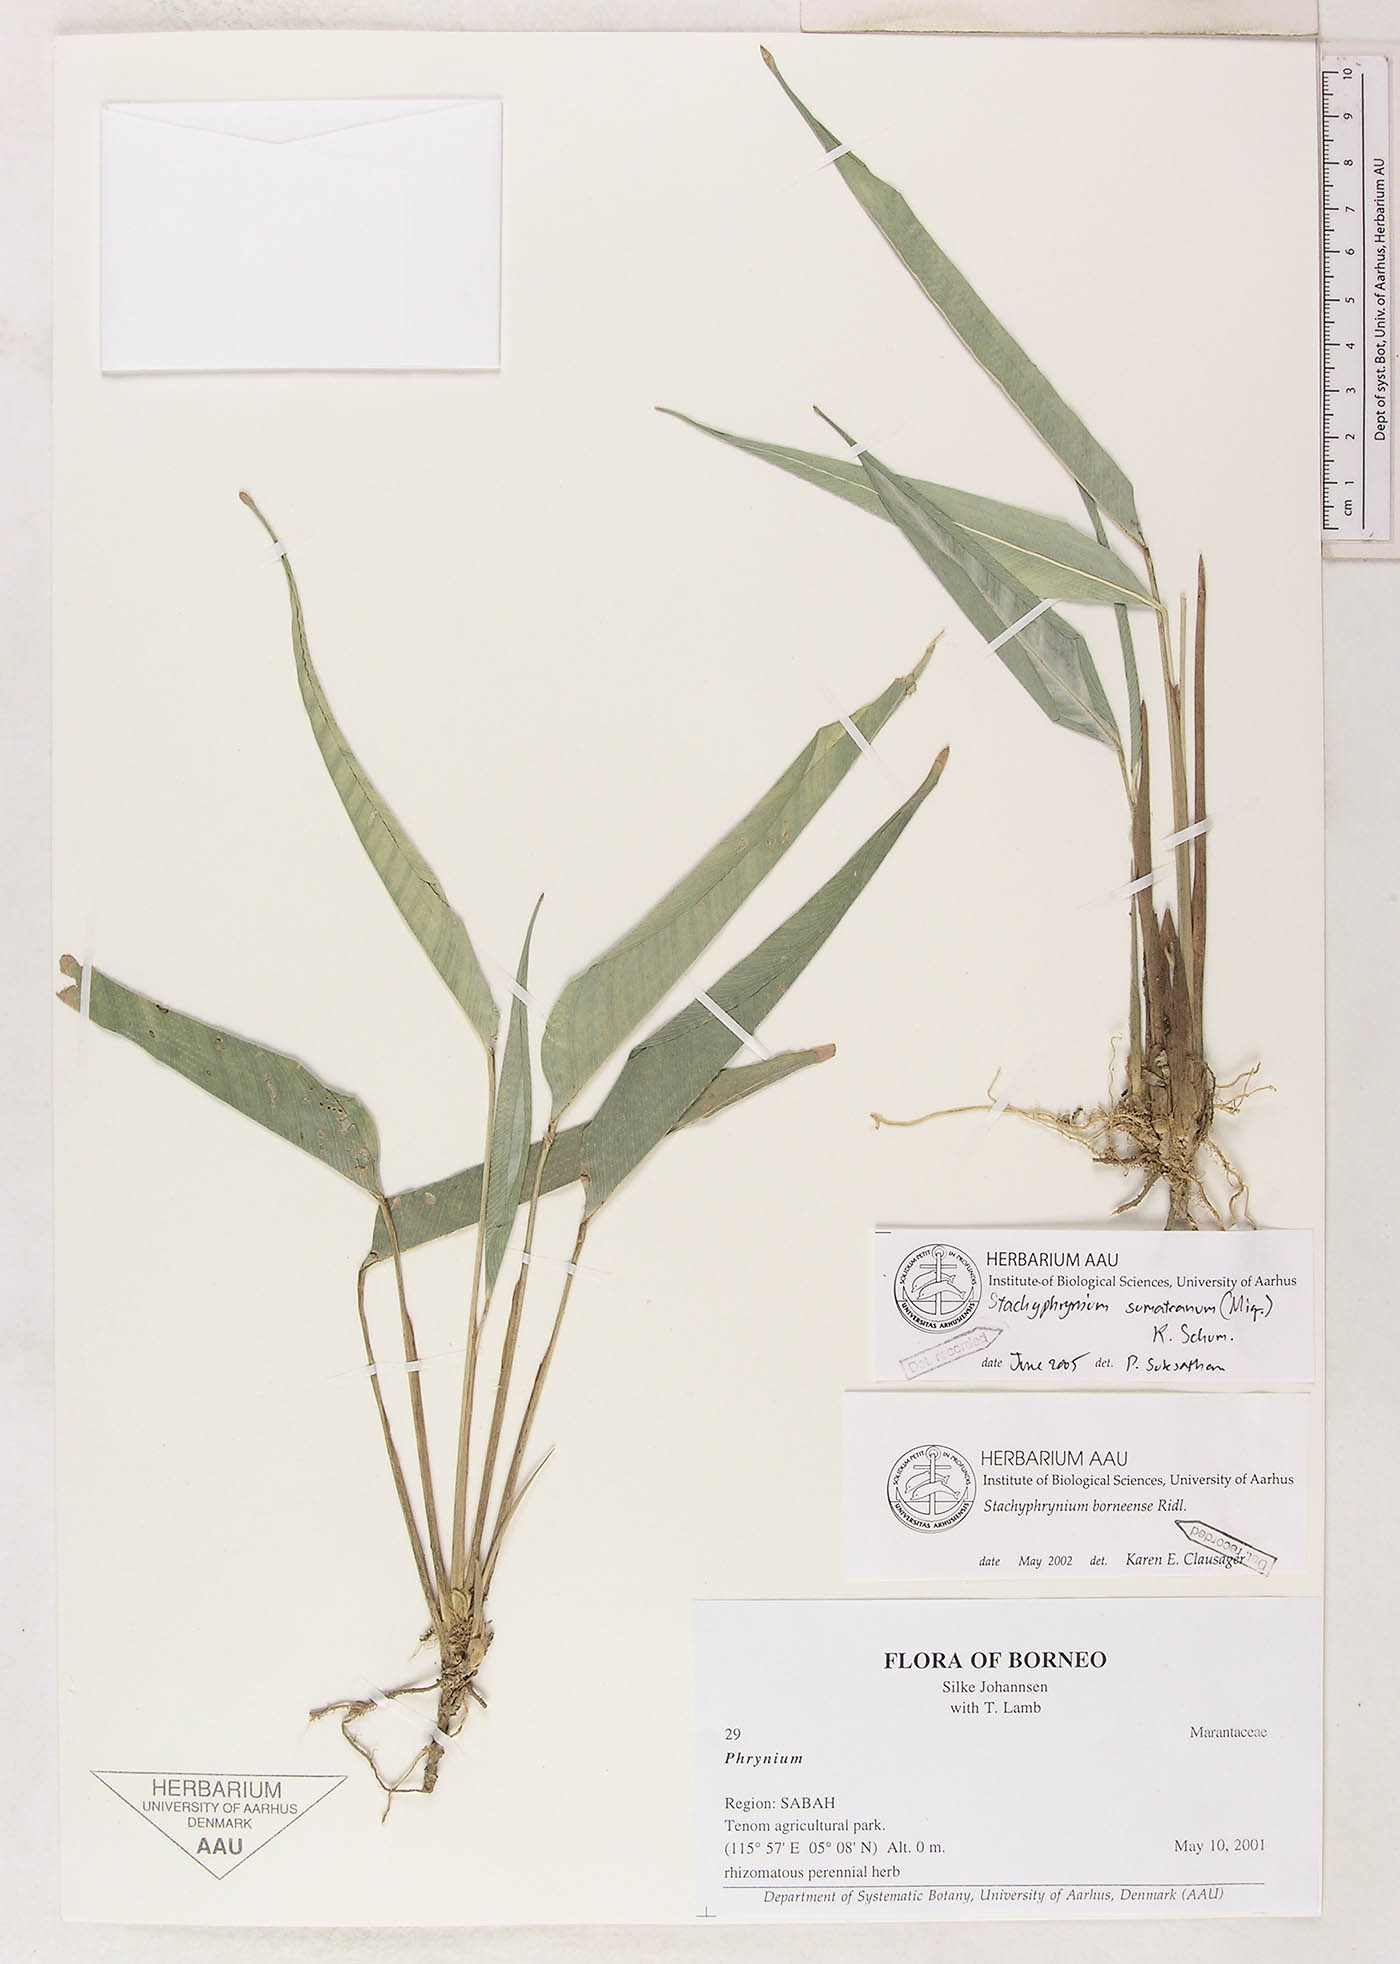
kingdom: Plantae
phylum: Tracheophyta
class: Liliopsida
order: Zingiberales
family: Marantaceae
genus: Stachyphrynium
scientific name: Stachyphrynium sumatranum
